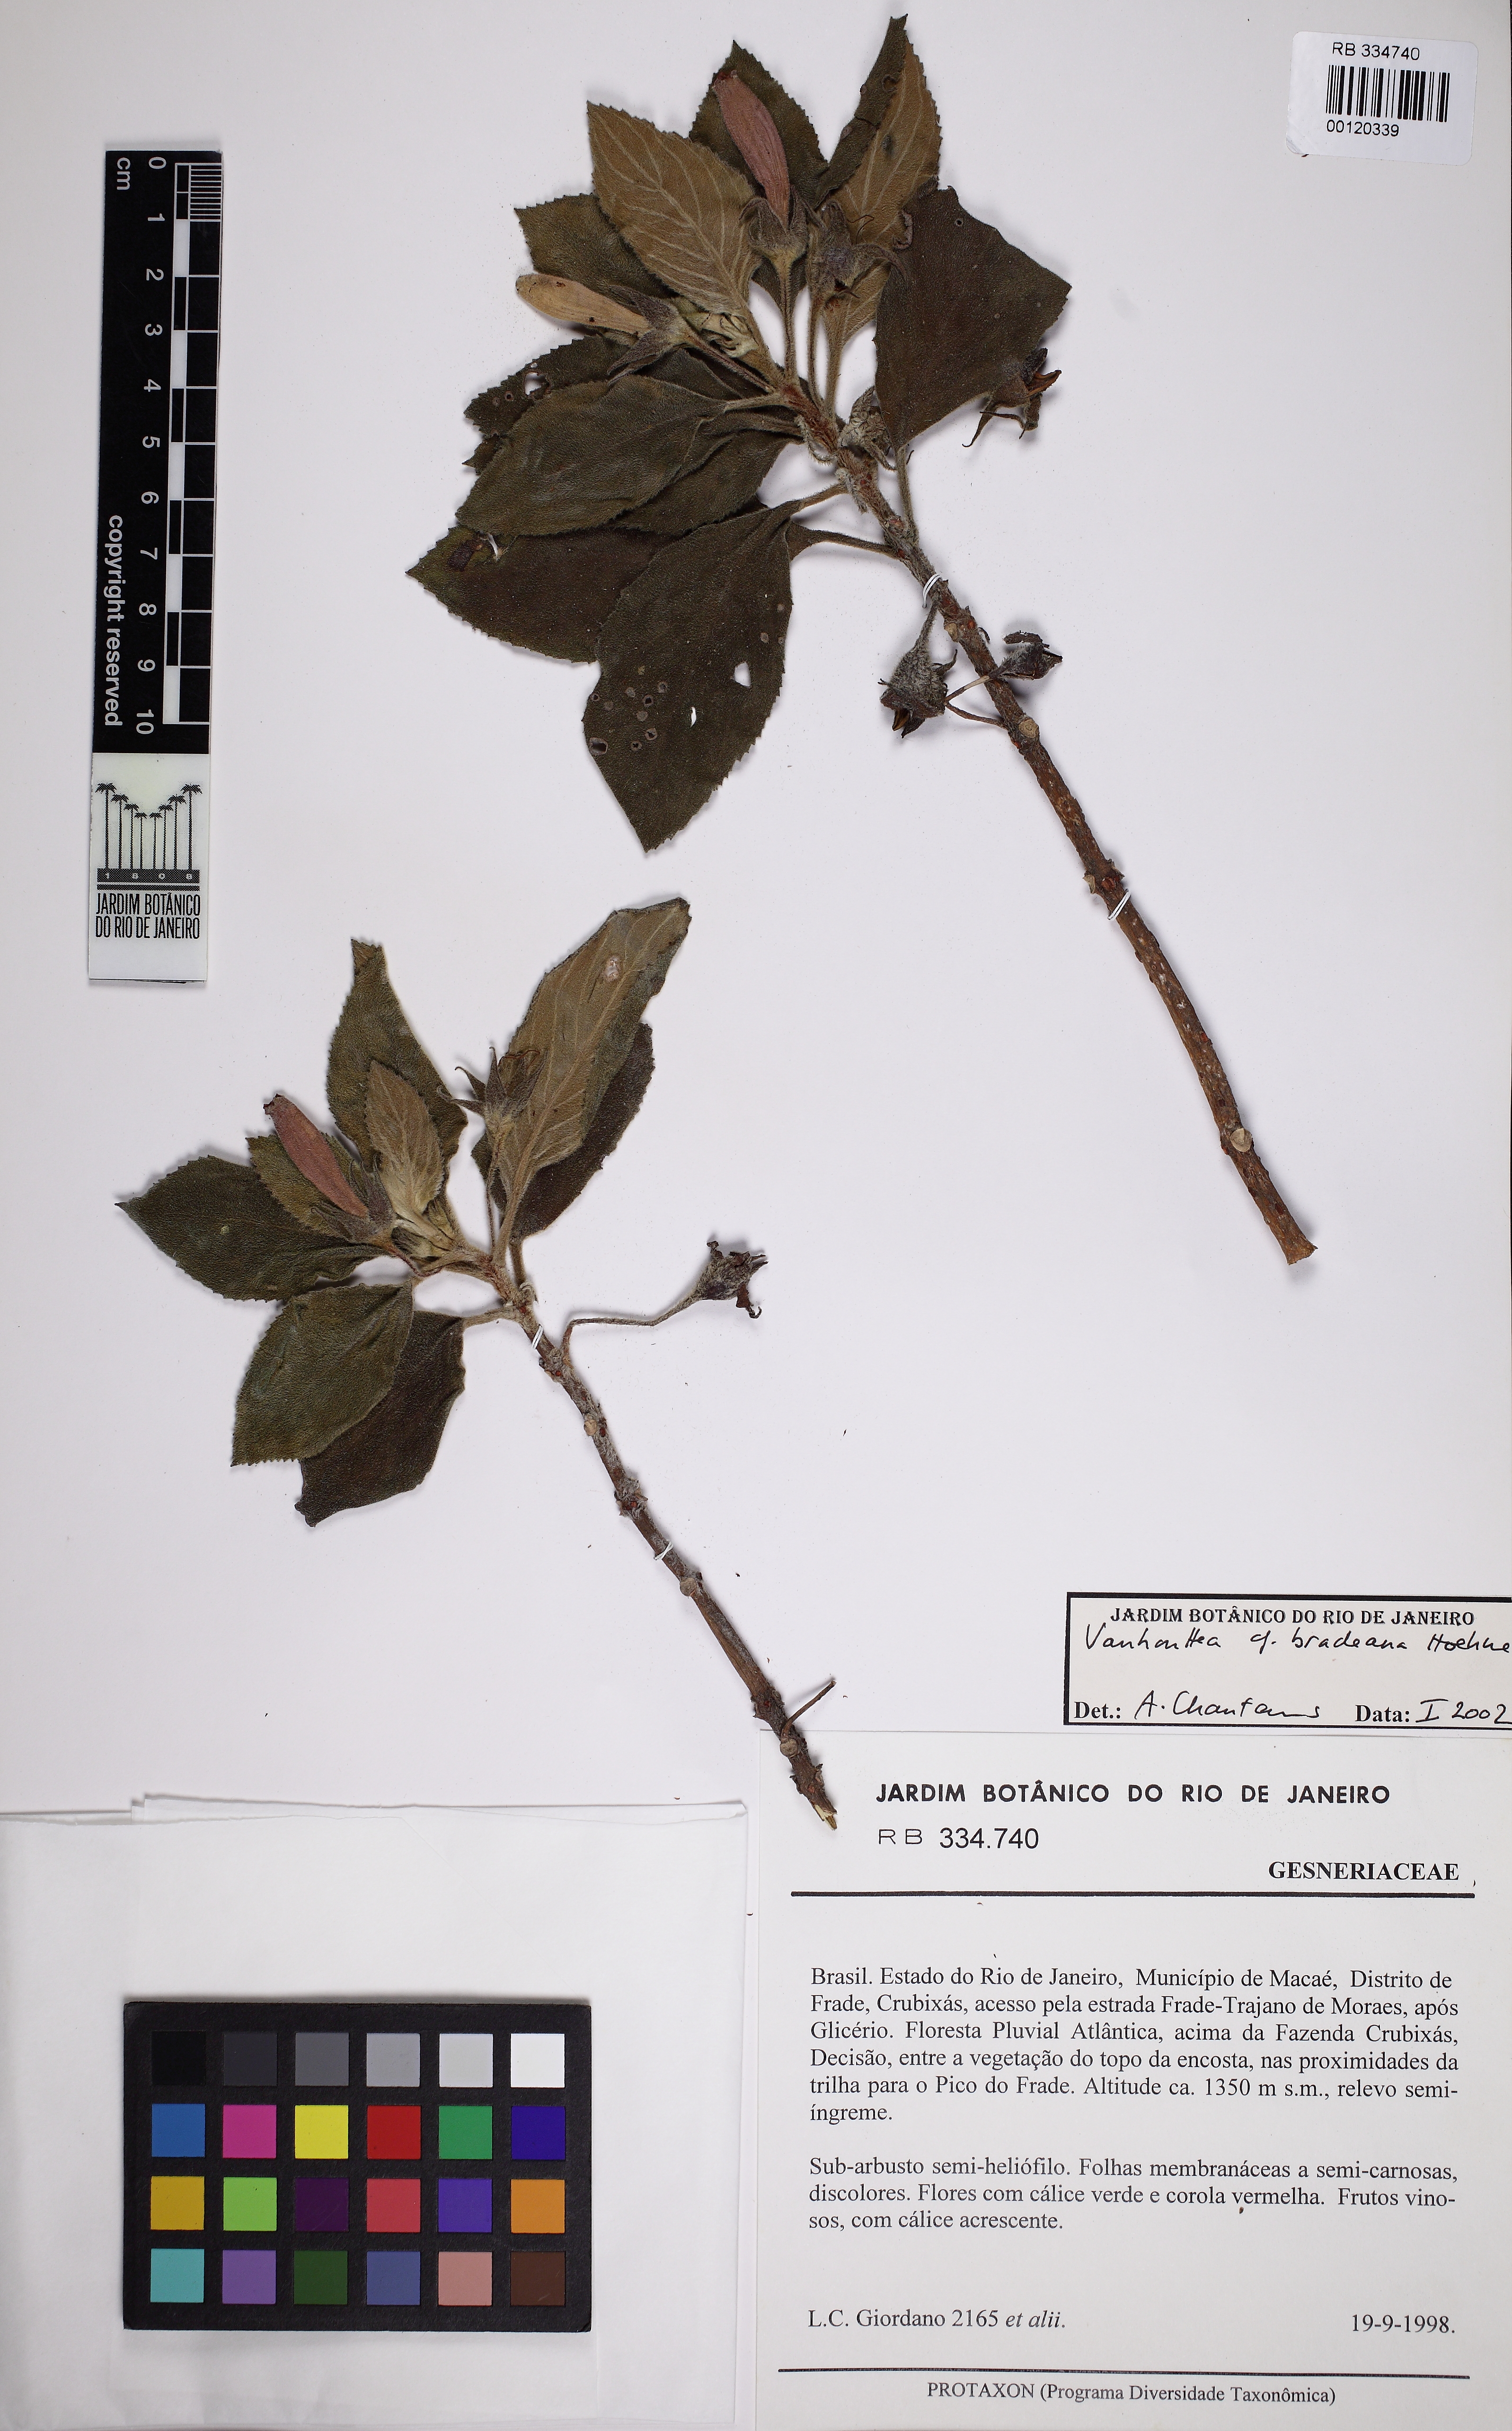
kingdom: Plantae
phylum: Tracheophyta
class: Magnoliopsida
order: Lamiales
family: Gesneriaceae
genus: Vanhouttea
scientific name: Vanhouttea bradeana
